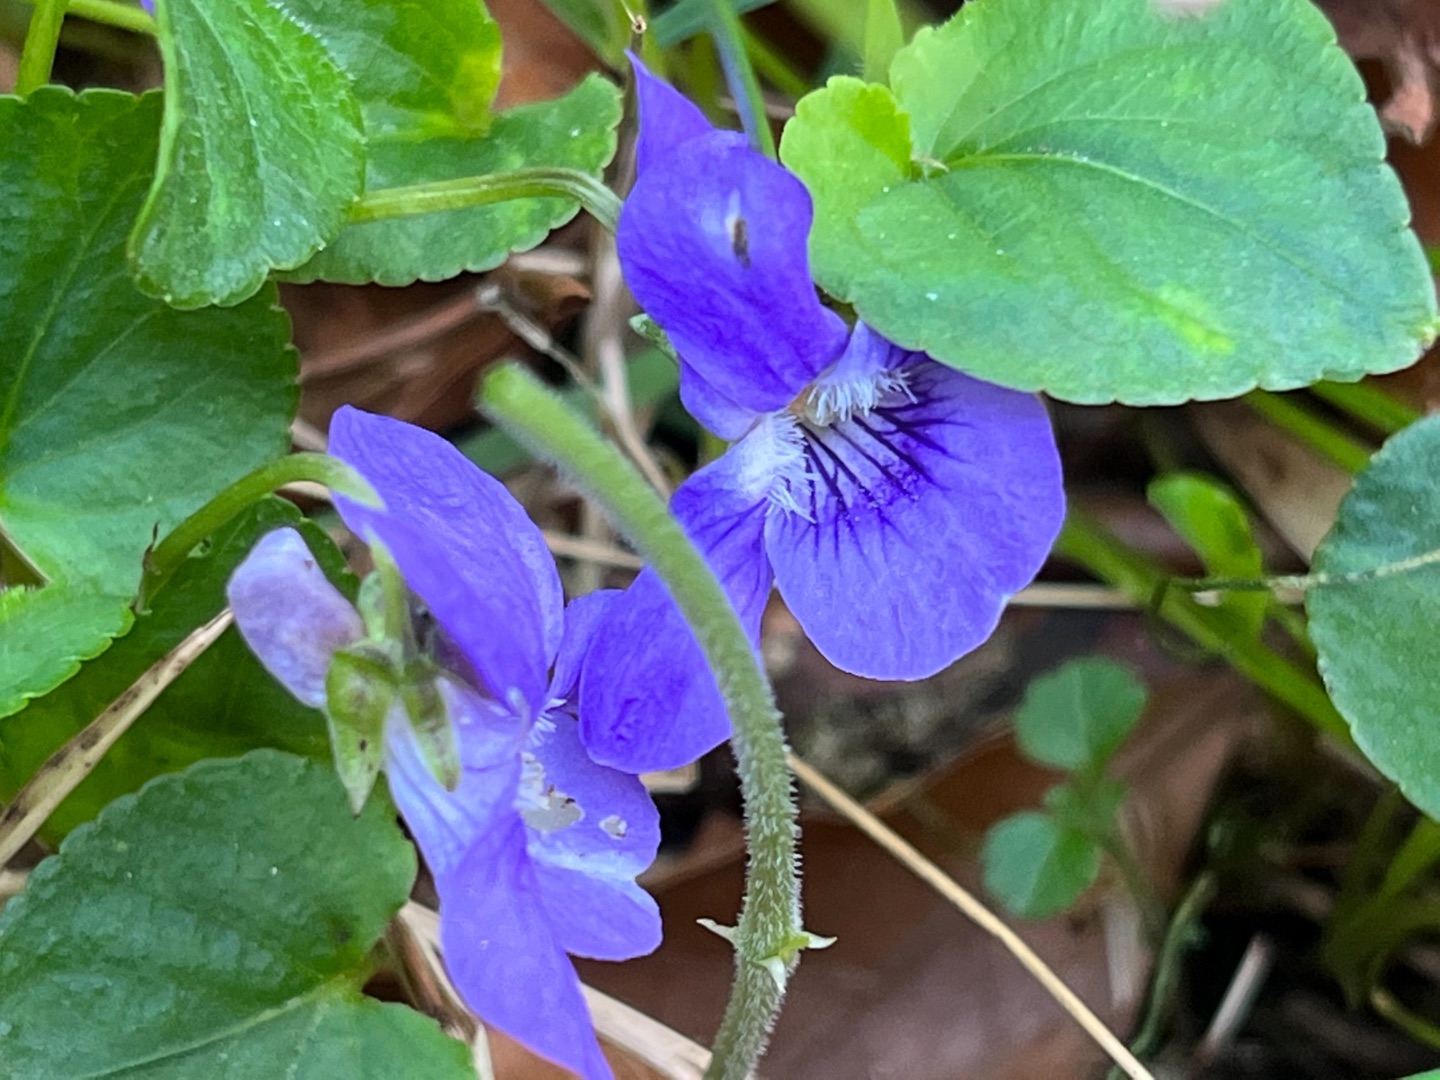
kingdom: Plantae
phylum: Tracheophyta
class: Magnoliopsida
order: Malpighiales
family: Violaceae
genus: Viola
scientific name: Viola riviniana
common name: Krat-viol
